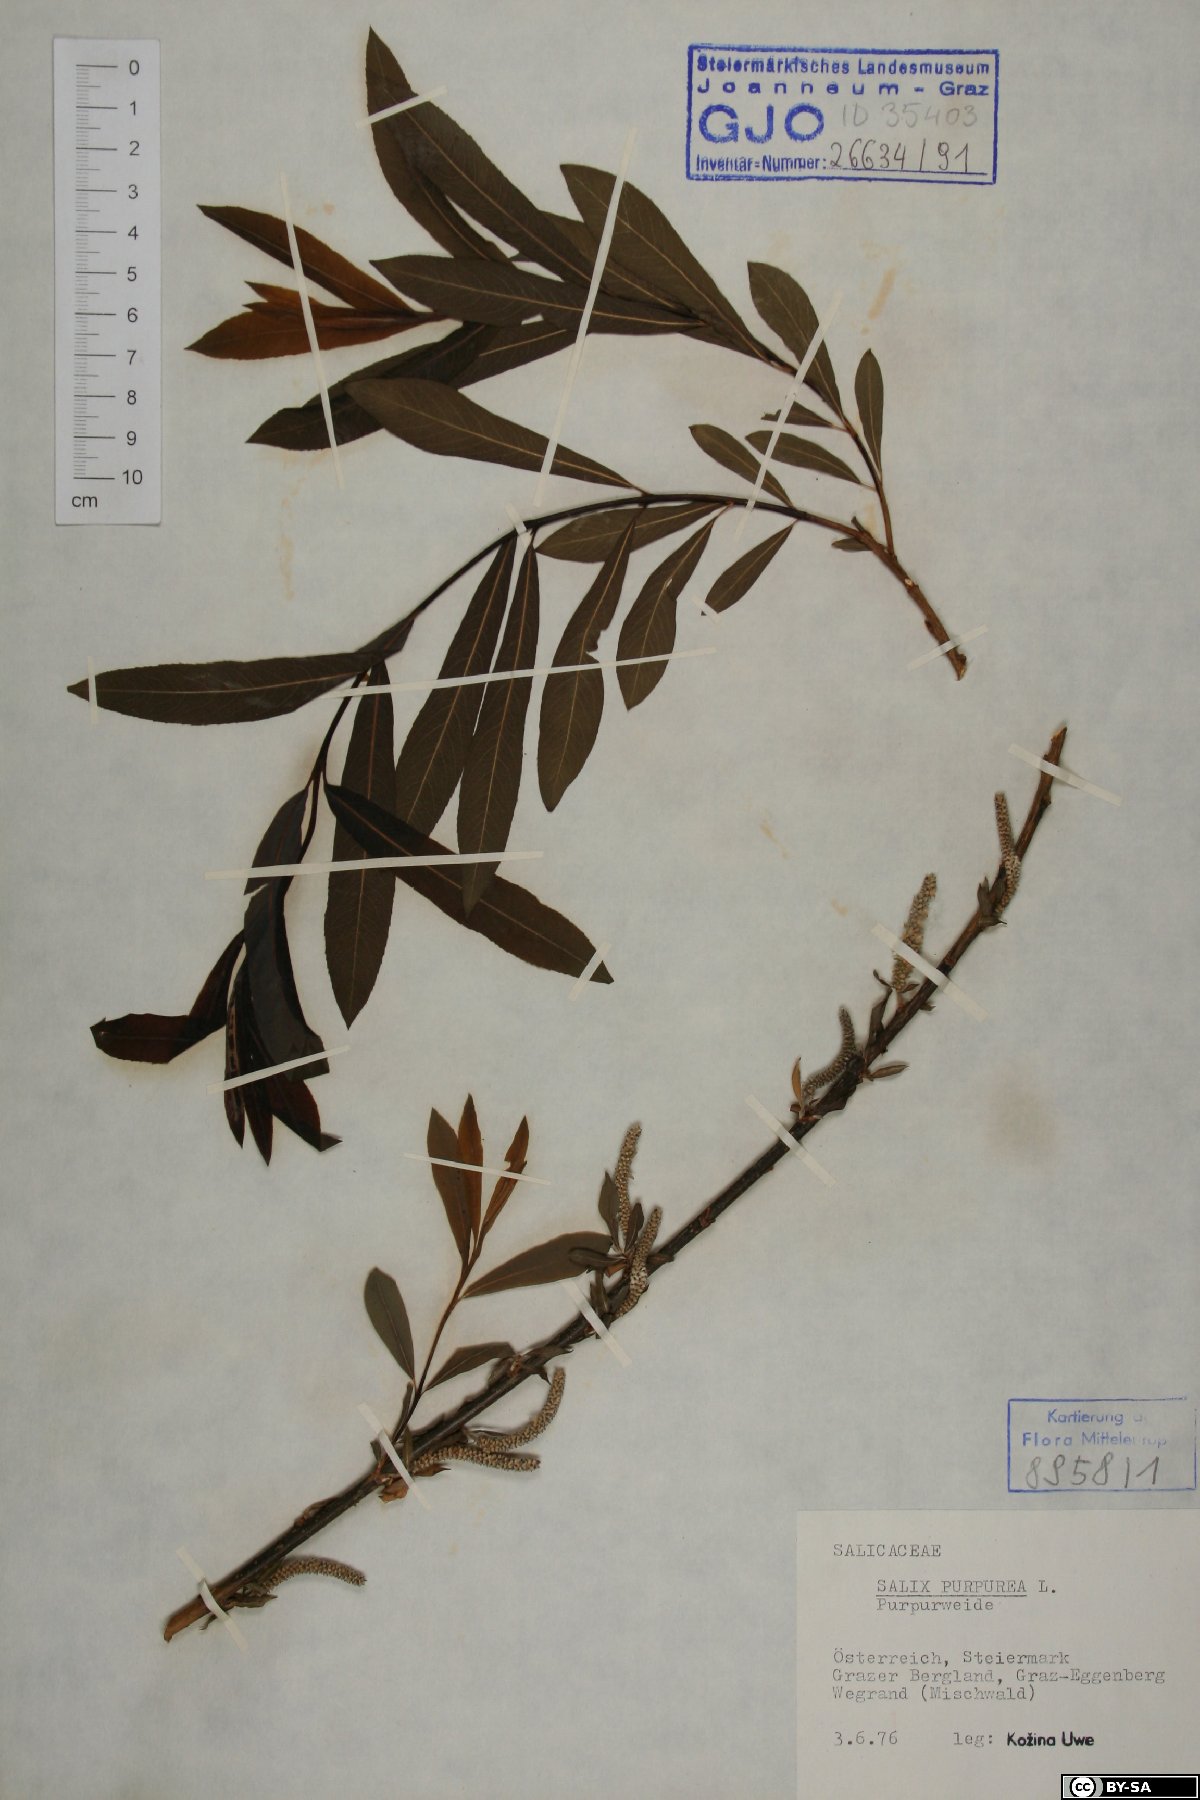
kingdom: Plantae
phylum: Tracheophyta
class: Magnoliopsida
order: Malpighiales
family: Salicaceae
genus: Salix
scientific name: Salix purpurea
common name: Purple willow
